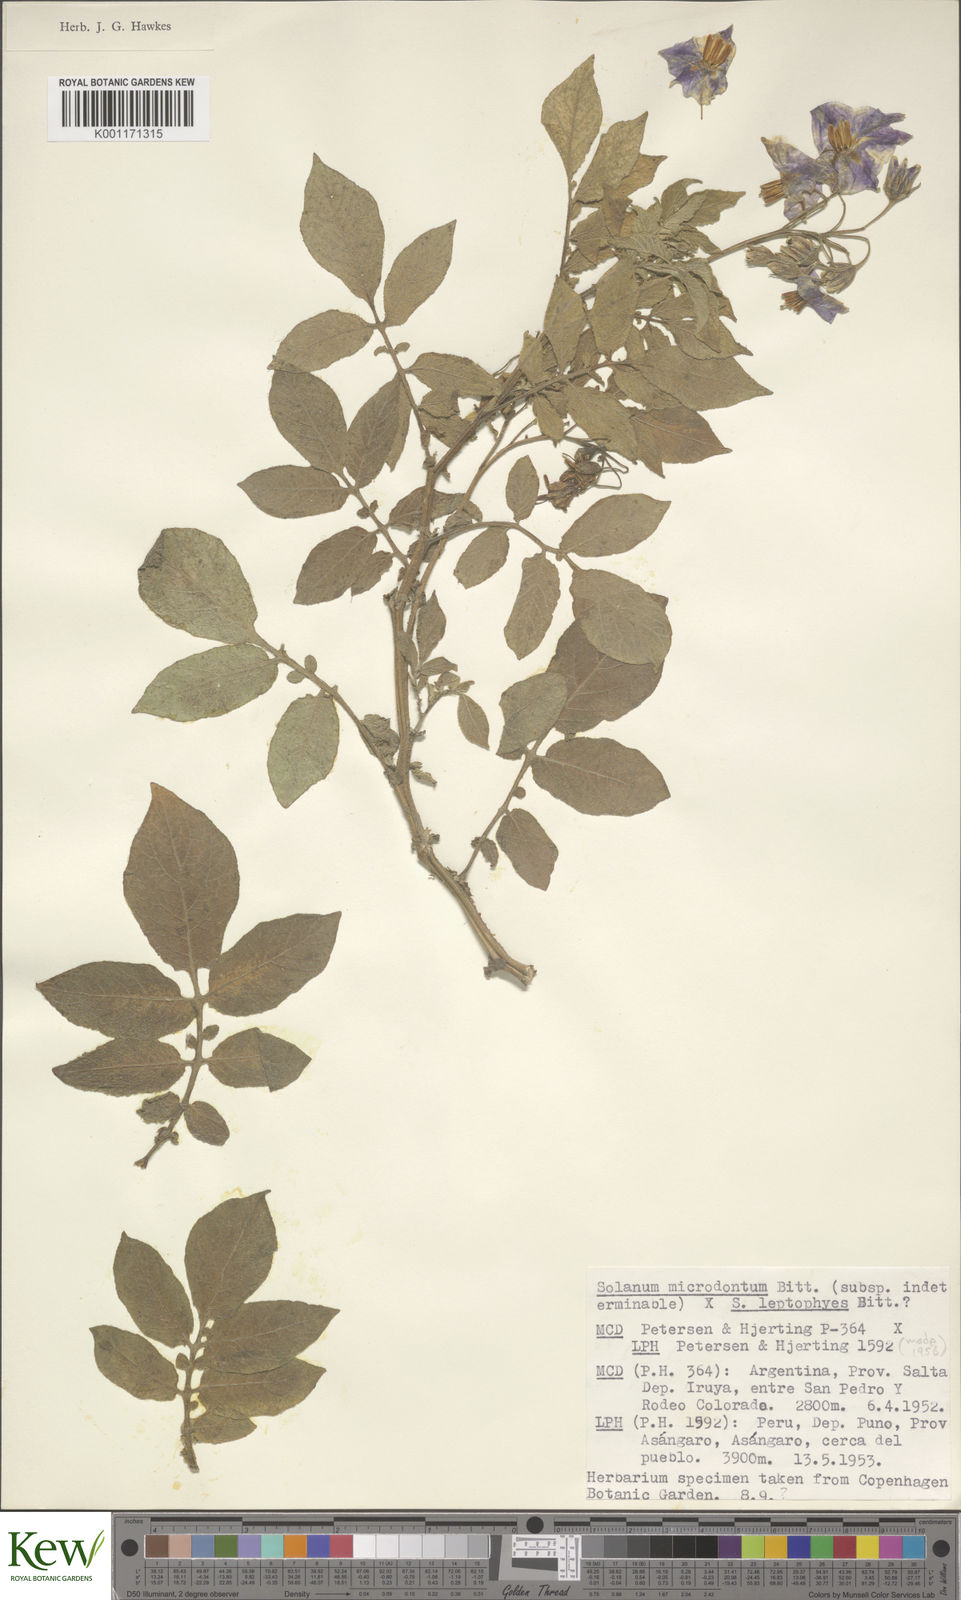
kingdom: Plantae
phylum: Tracheophyta
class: Magnoliopsida
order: Solanales
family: Solanaceae
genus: Solanum
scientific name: Solanum microdontum
